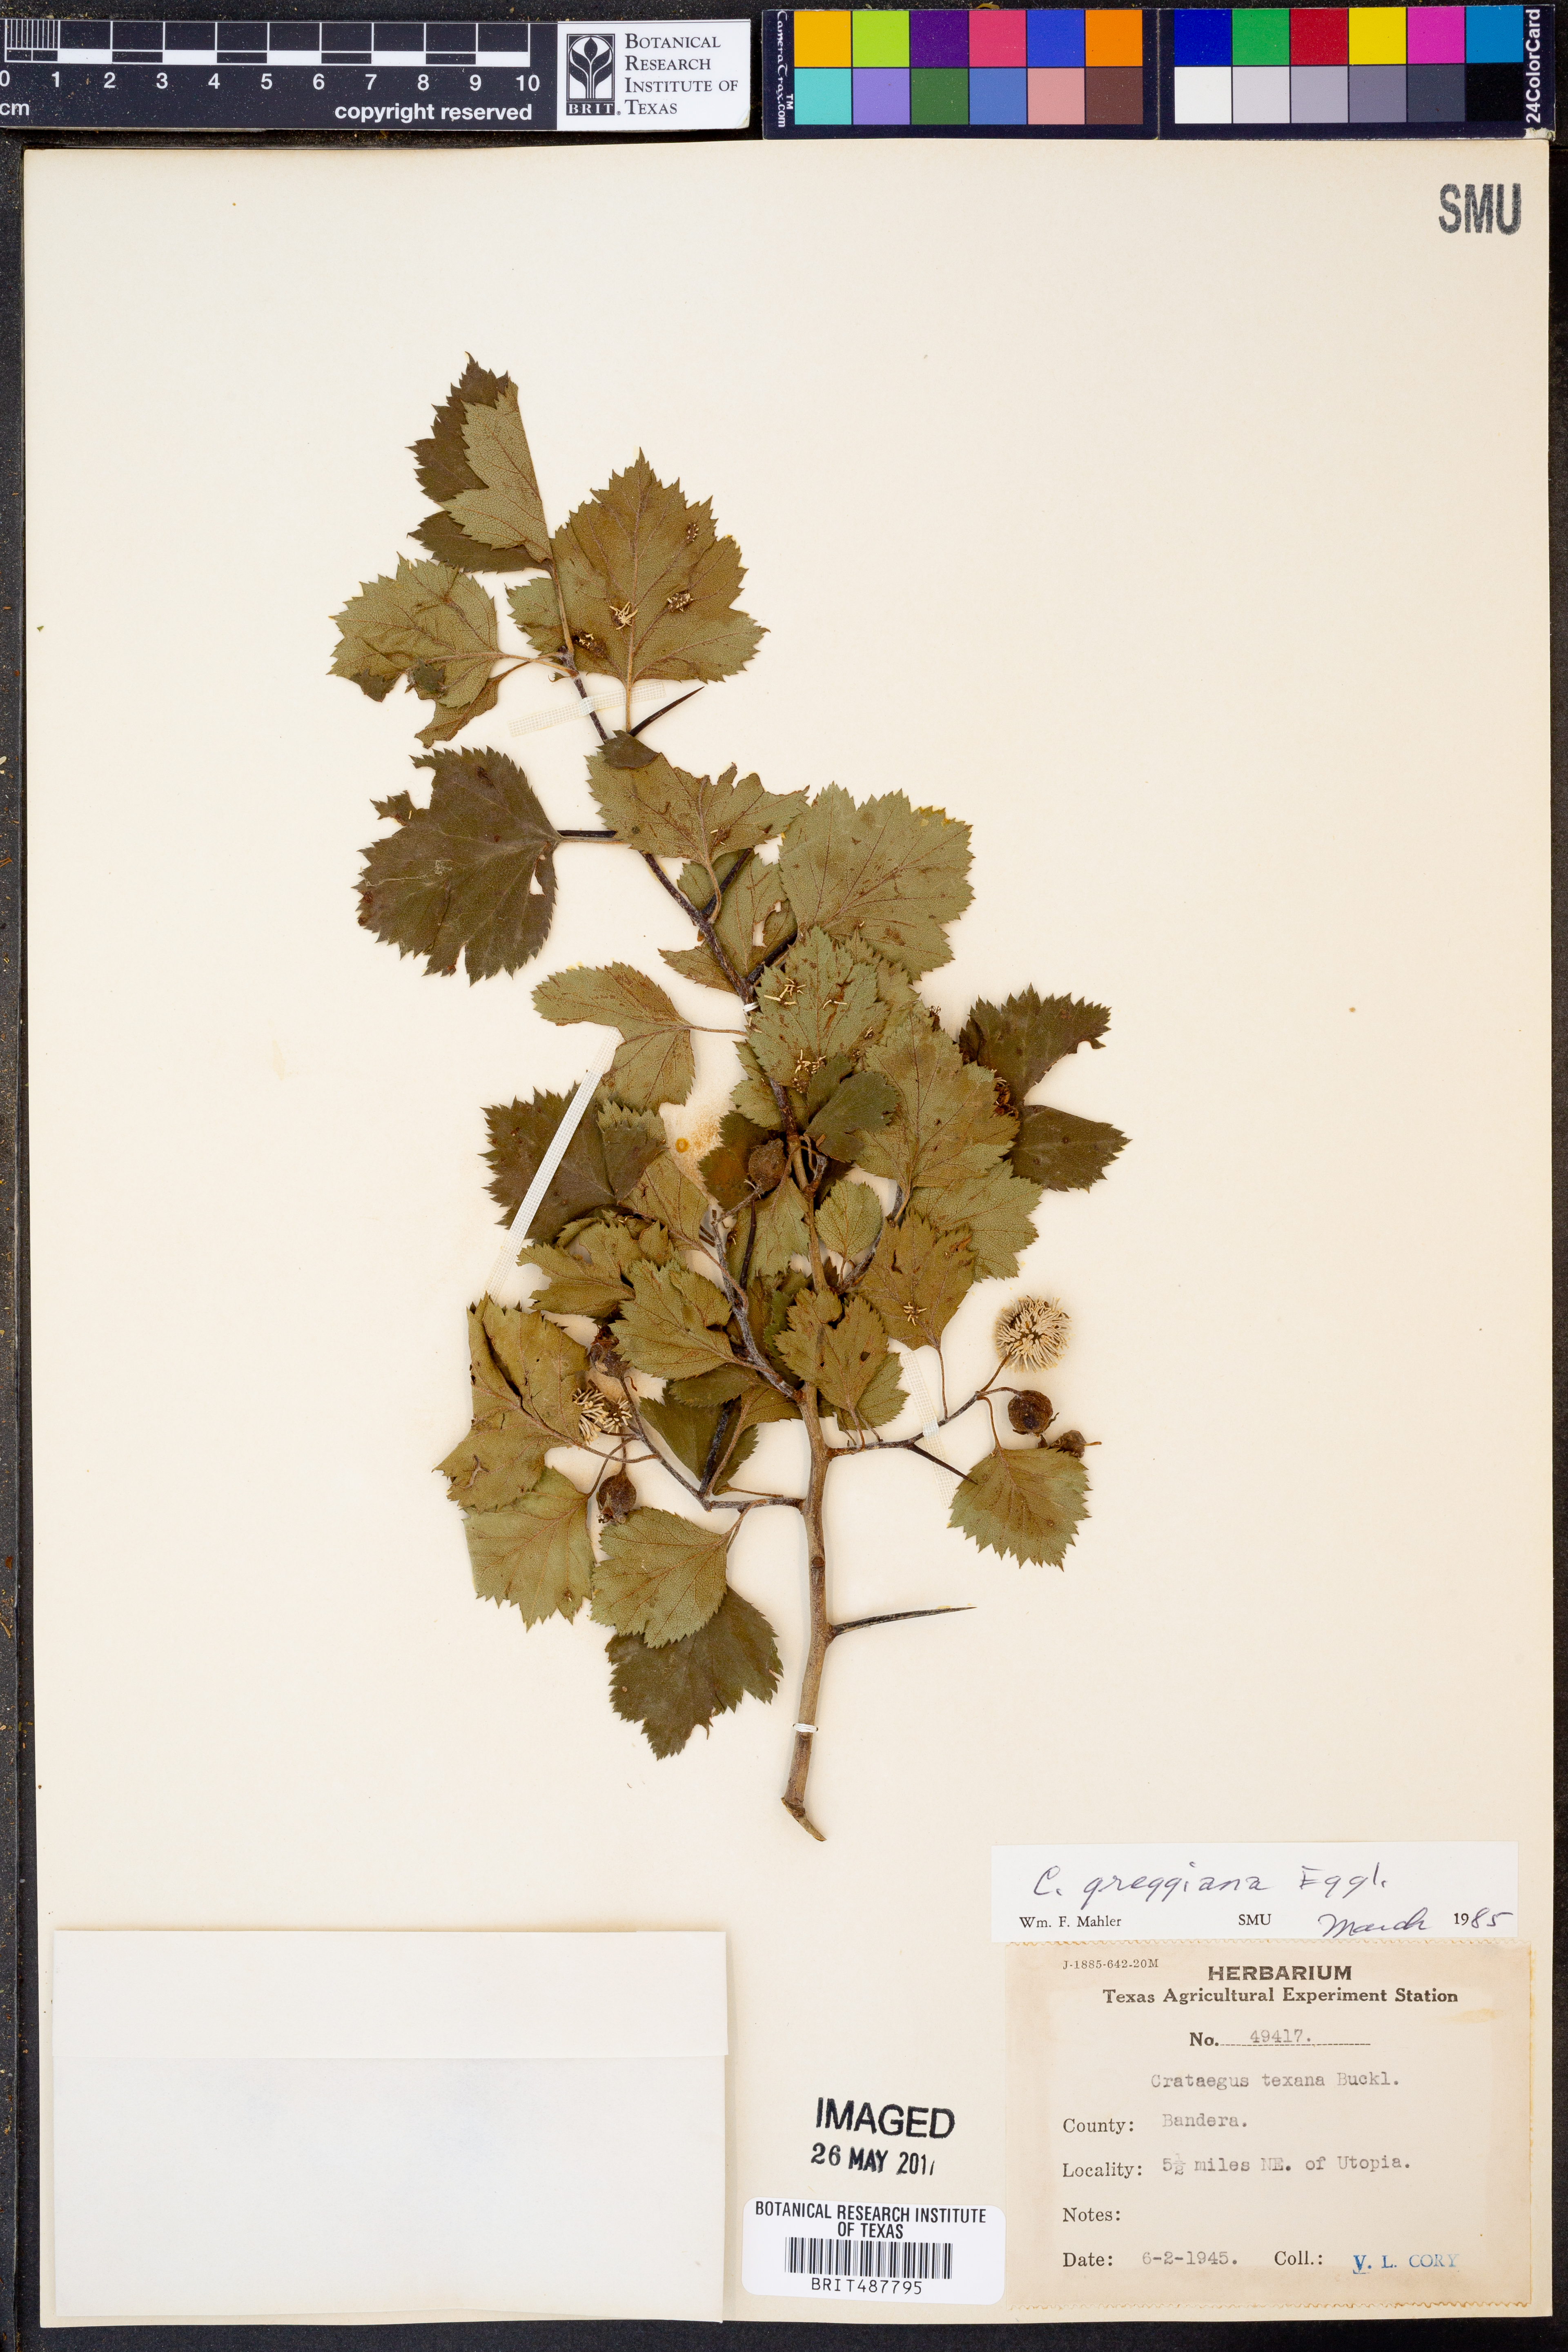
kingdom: Plantae
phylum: Tracheophyta
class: Magnoliopsida
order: Rosales
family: Rosaceae
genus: Crataegus
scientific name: Crataegus greggiana
